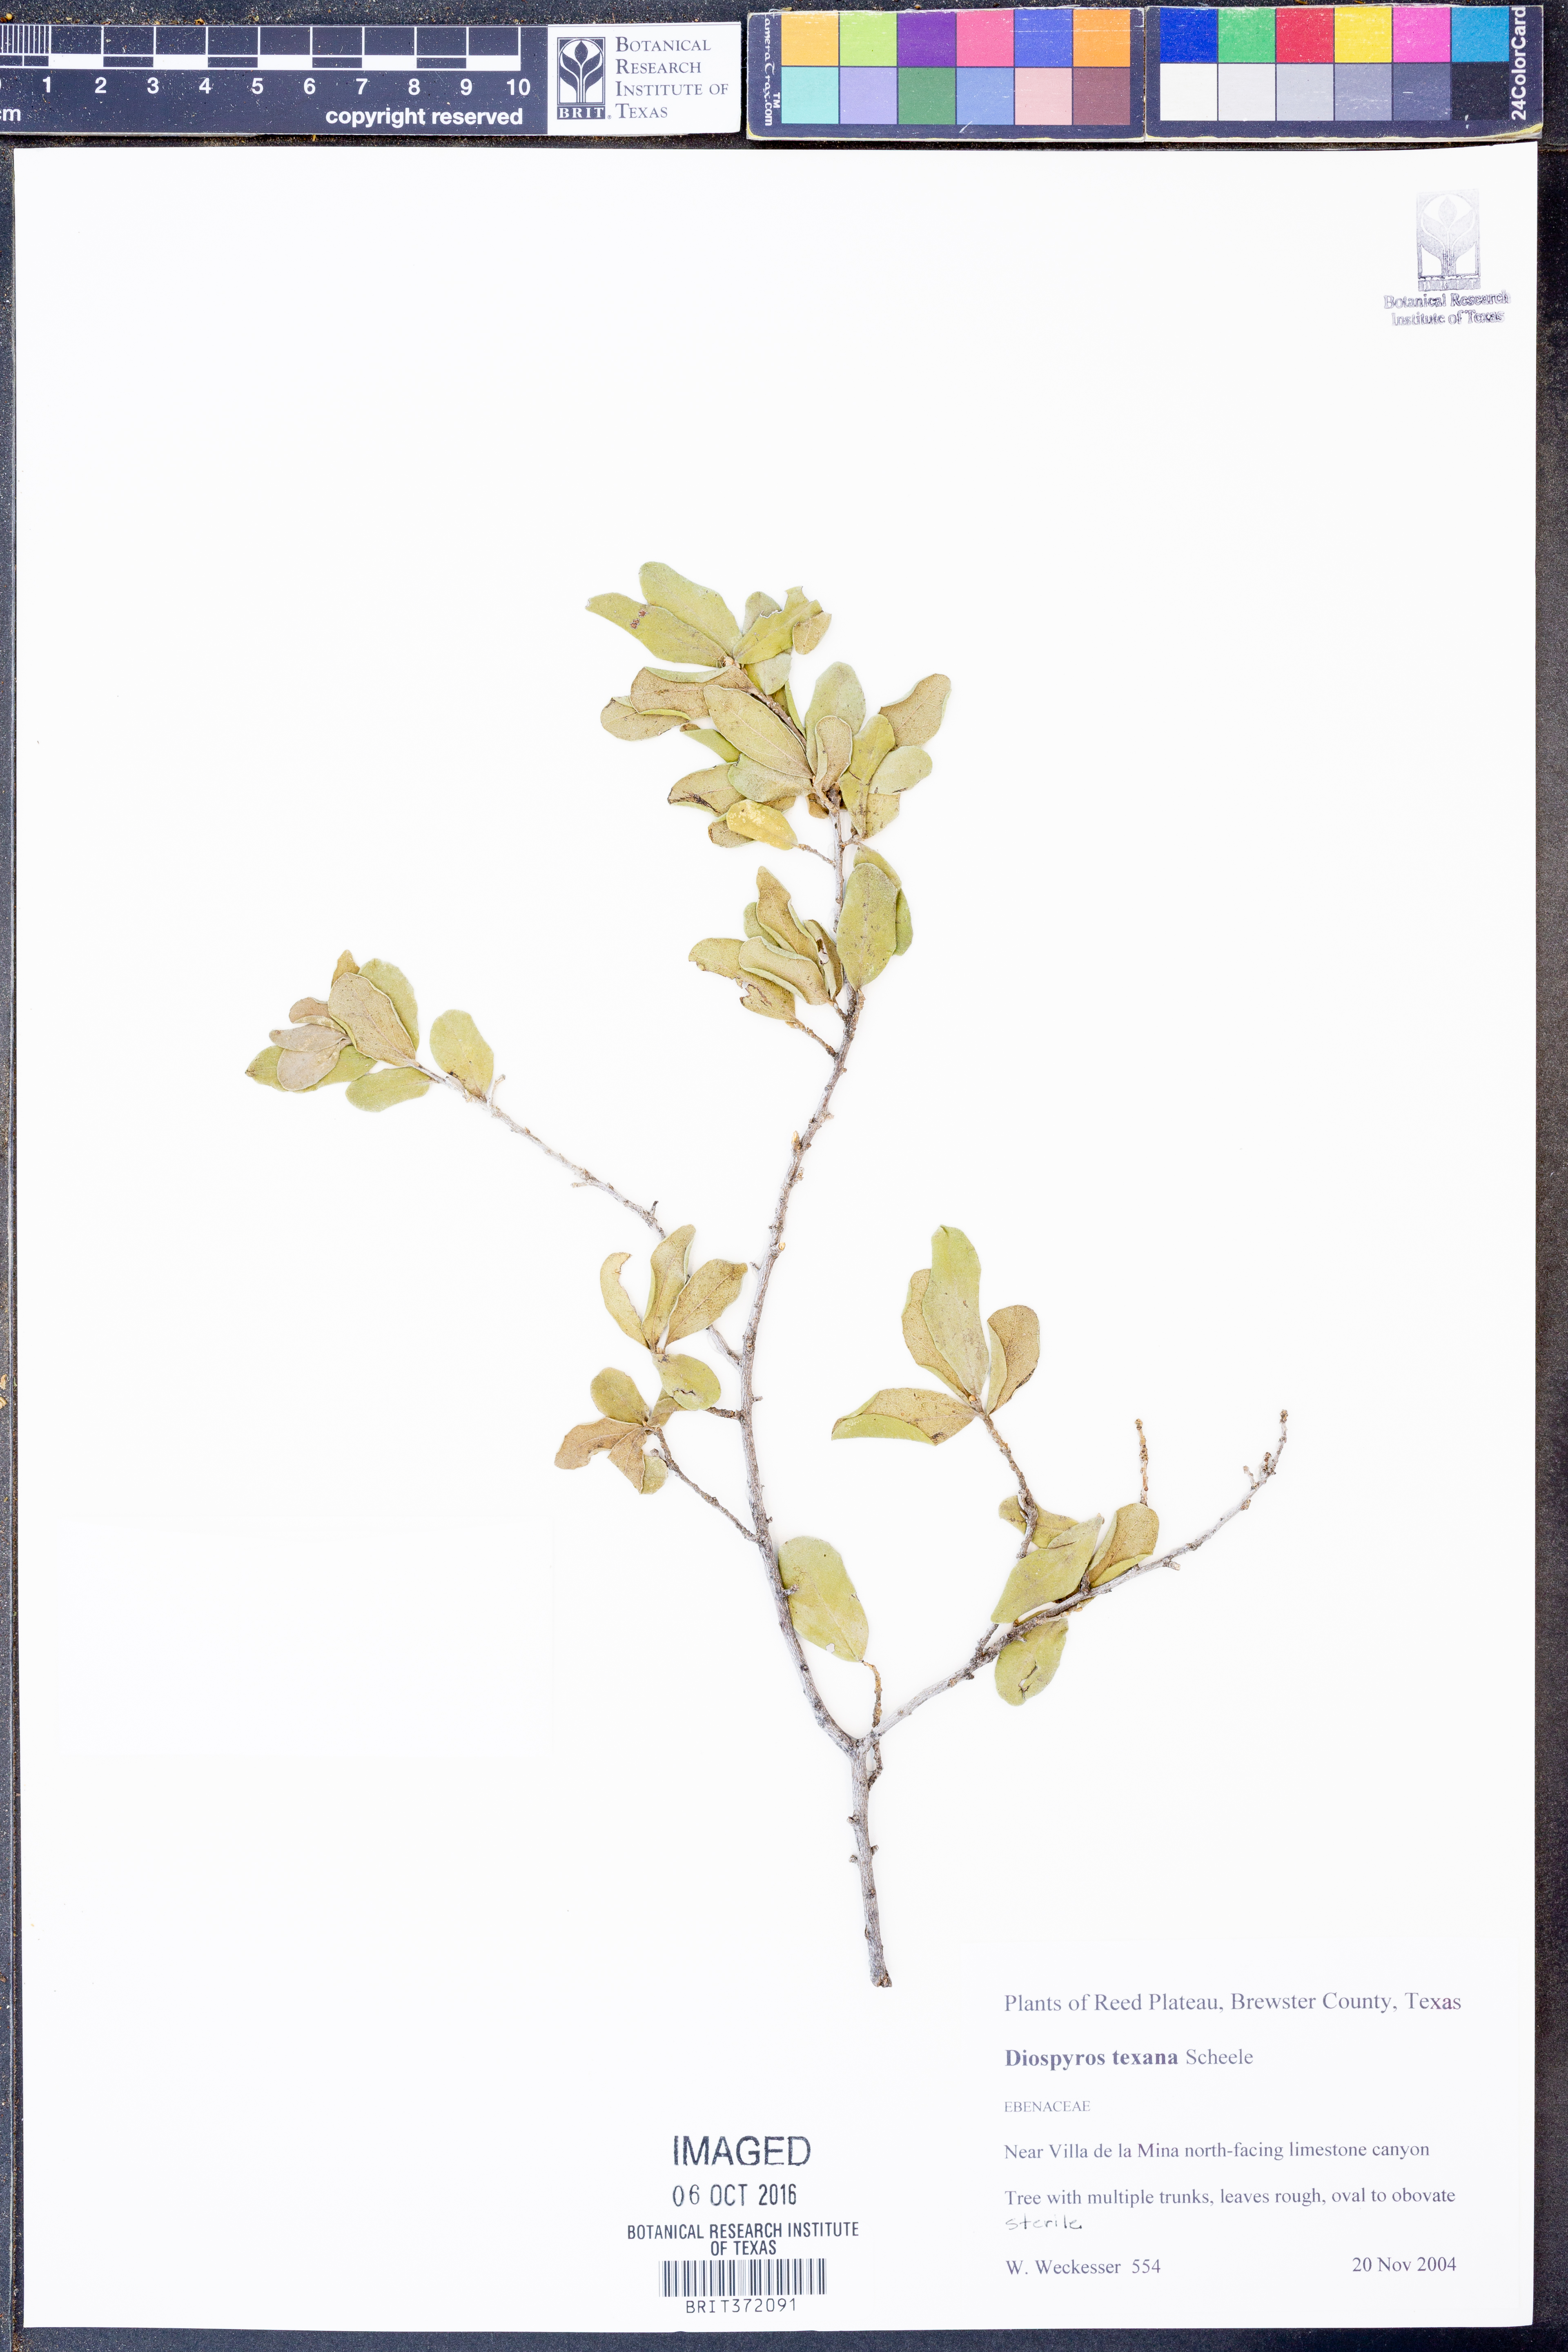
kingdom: Plantae
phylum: Tracheophyta
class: Magnoliopsida
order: Ericales
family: Ebenaceae
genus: Diospyros
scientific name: Diospyros texana
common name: Texas persimmon
